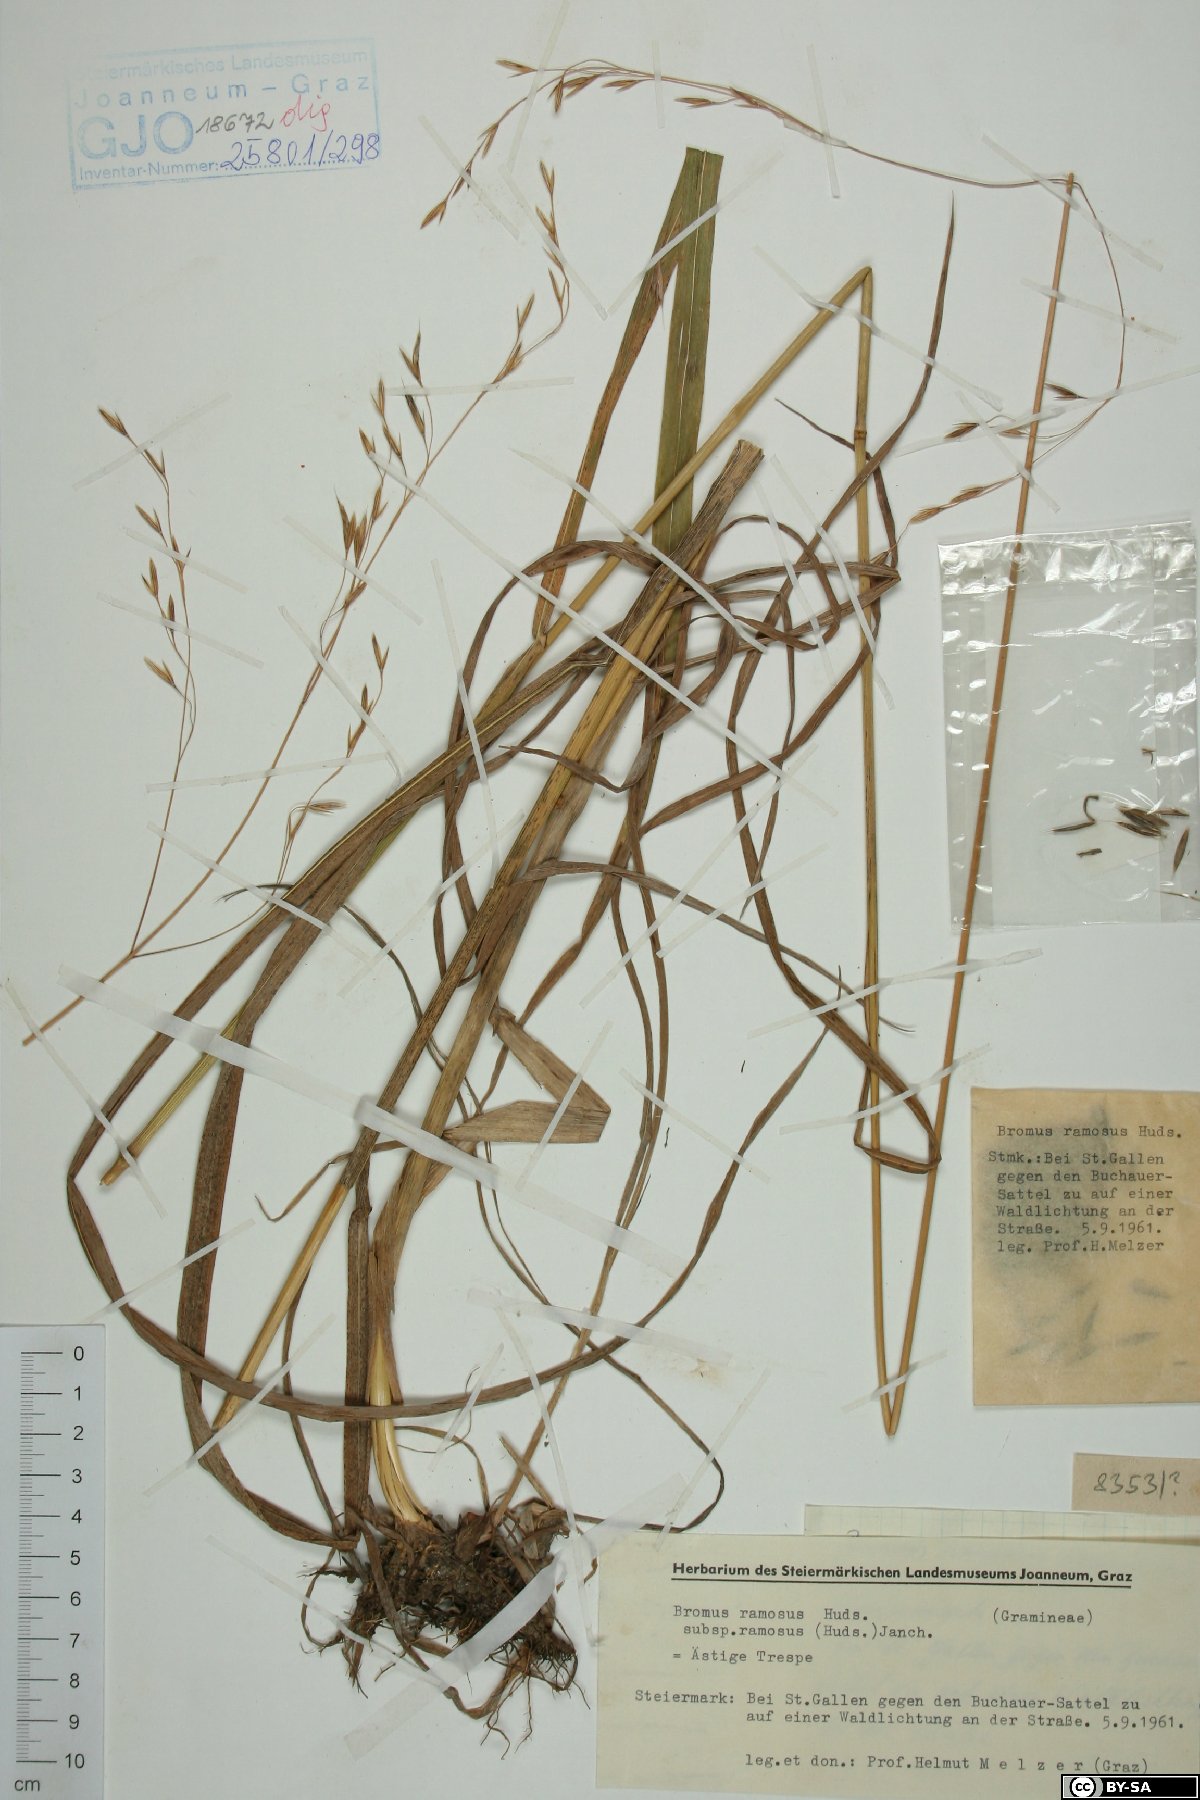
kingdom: Plantae
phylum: Tracheophyta
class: Liliopsida
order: Poales
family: Poaceae
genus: Bromus
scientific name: Bromus ramosus
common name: Hairy brome
